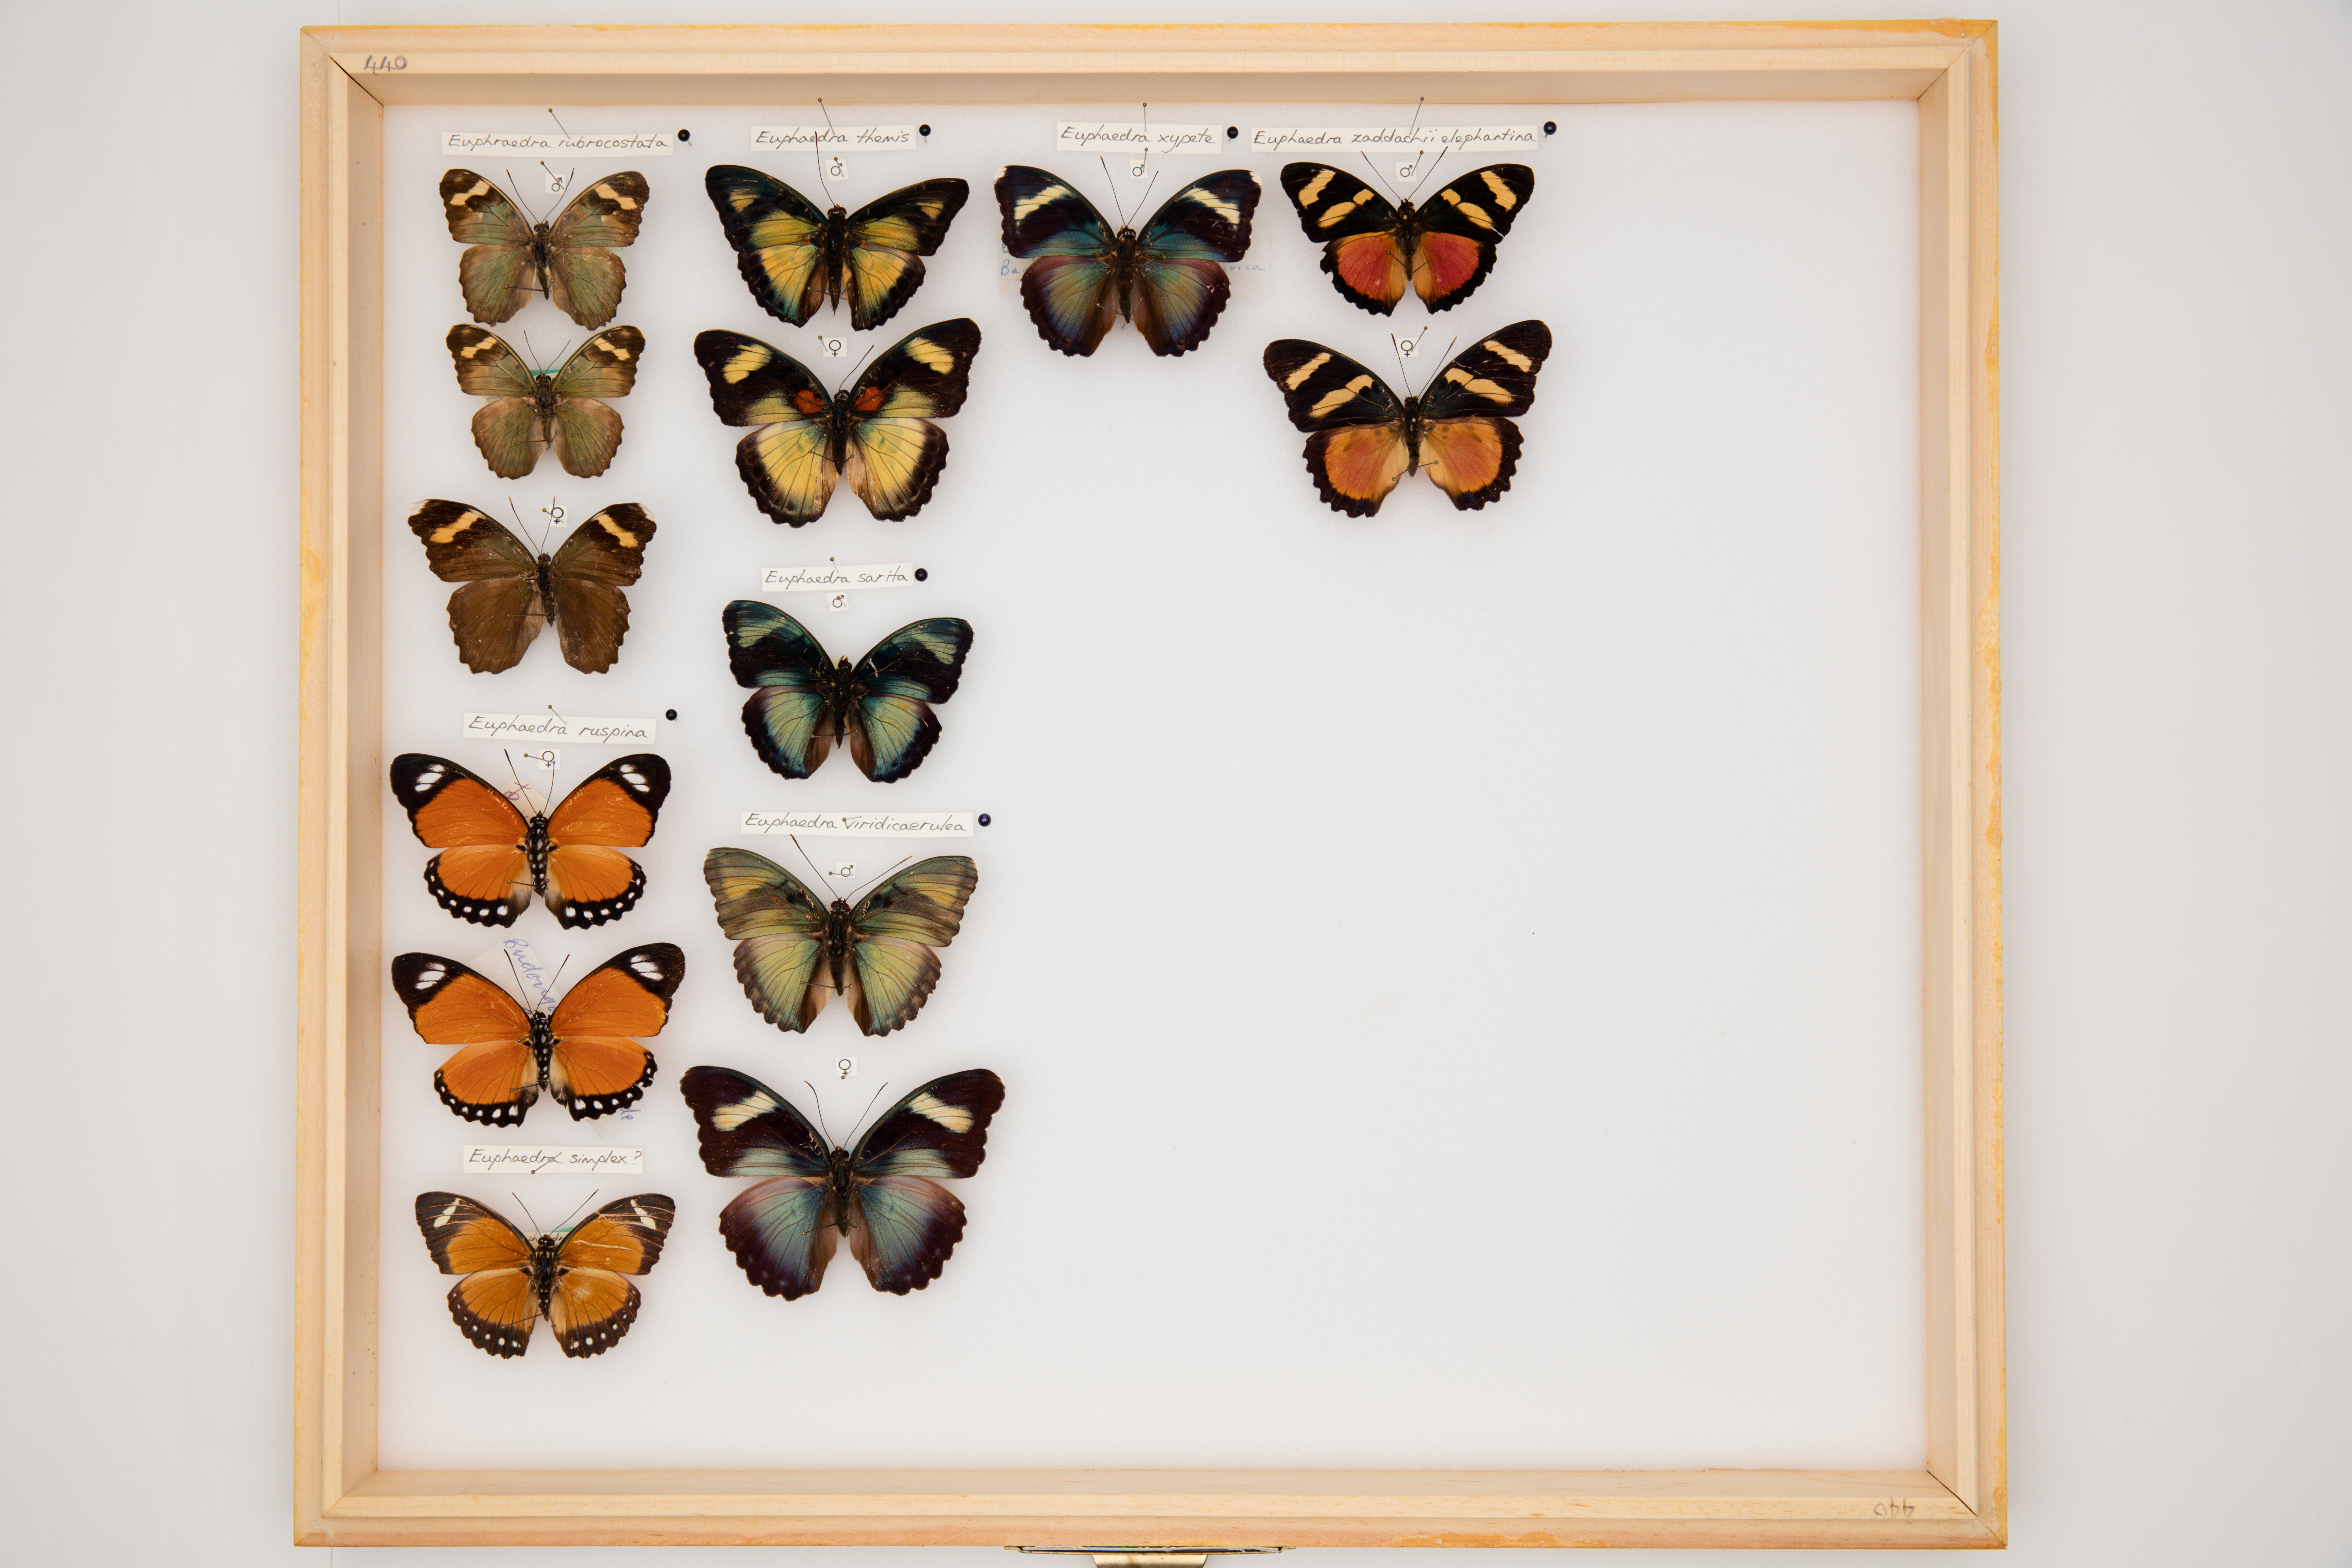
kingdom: Animalia
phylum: Arthropoda
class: Insecta
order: Lepidoptera
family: Nymphalidae
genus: Euphaedra
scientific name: Euphaedra zaddachi
